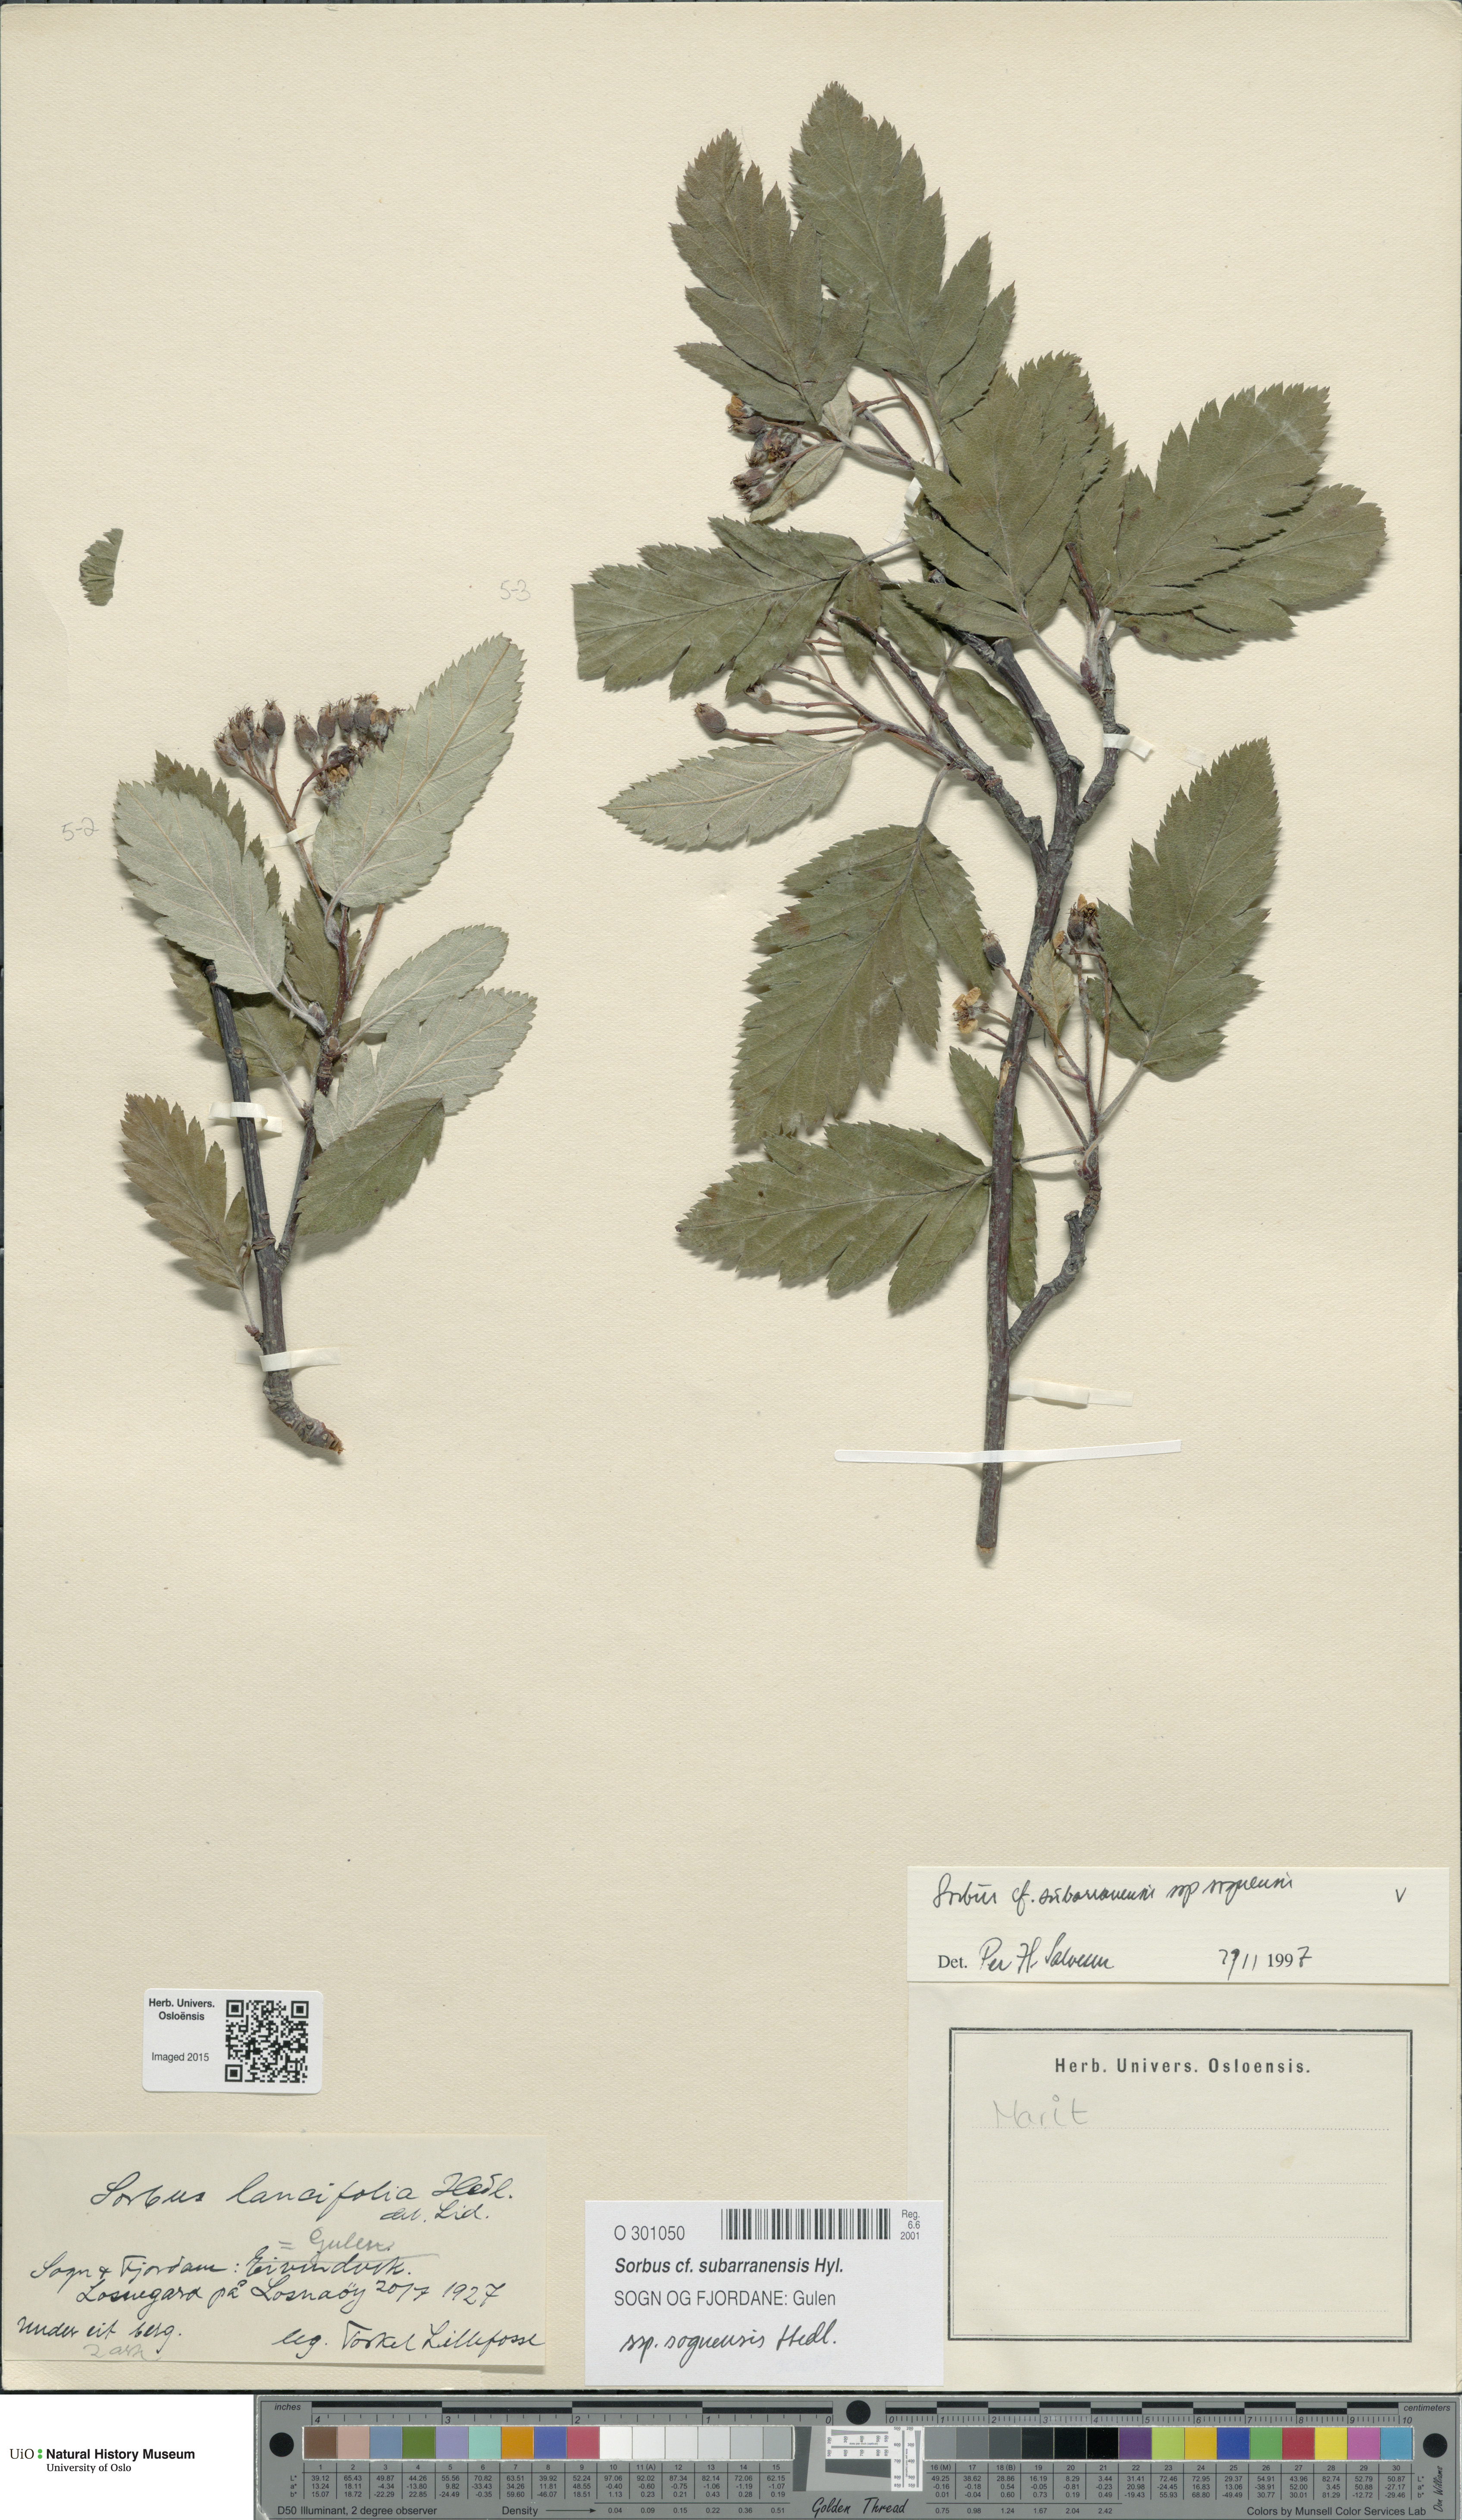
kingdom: Plantae
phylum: Tracheophyta
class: Magnoliopsida
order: Rosales
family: Rosaceae
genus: Hedlundia
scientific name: Hedlundia sognensis
